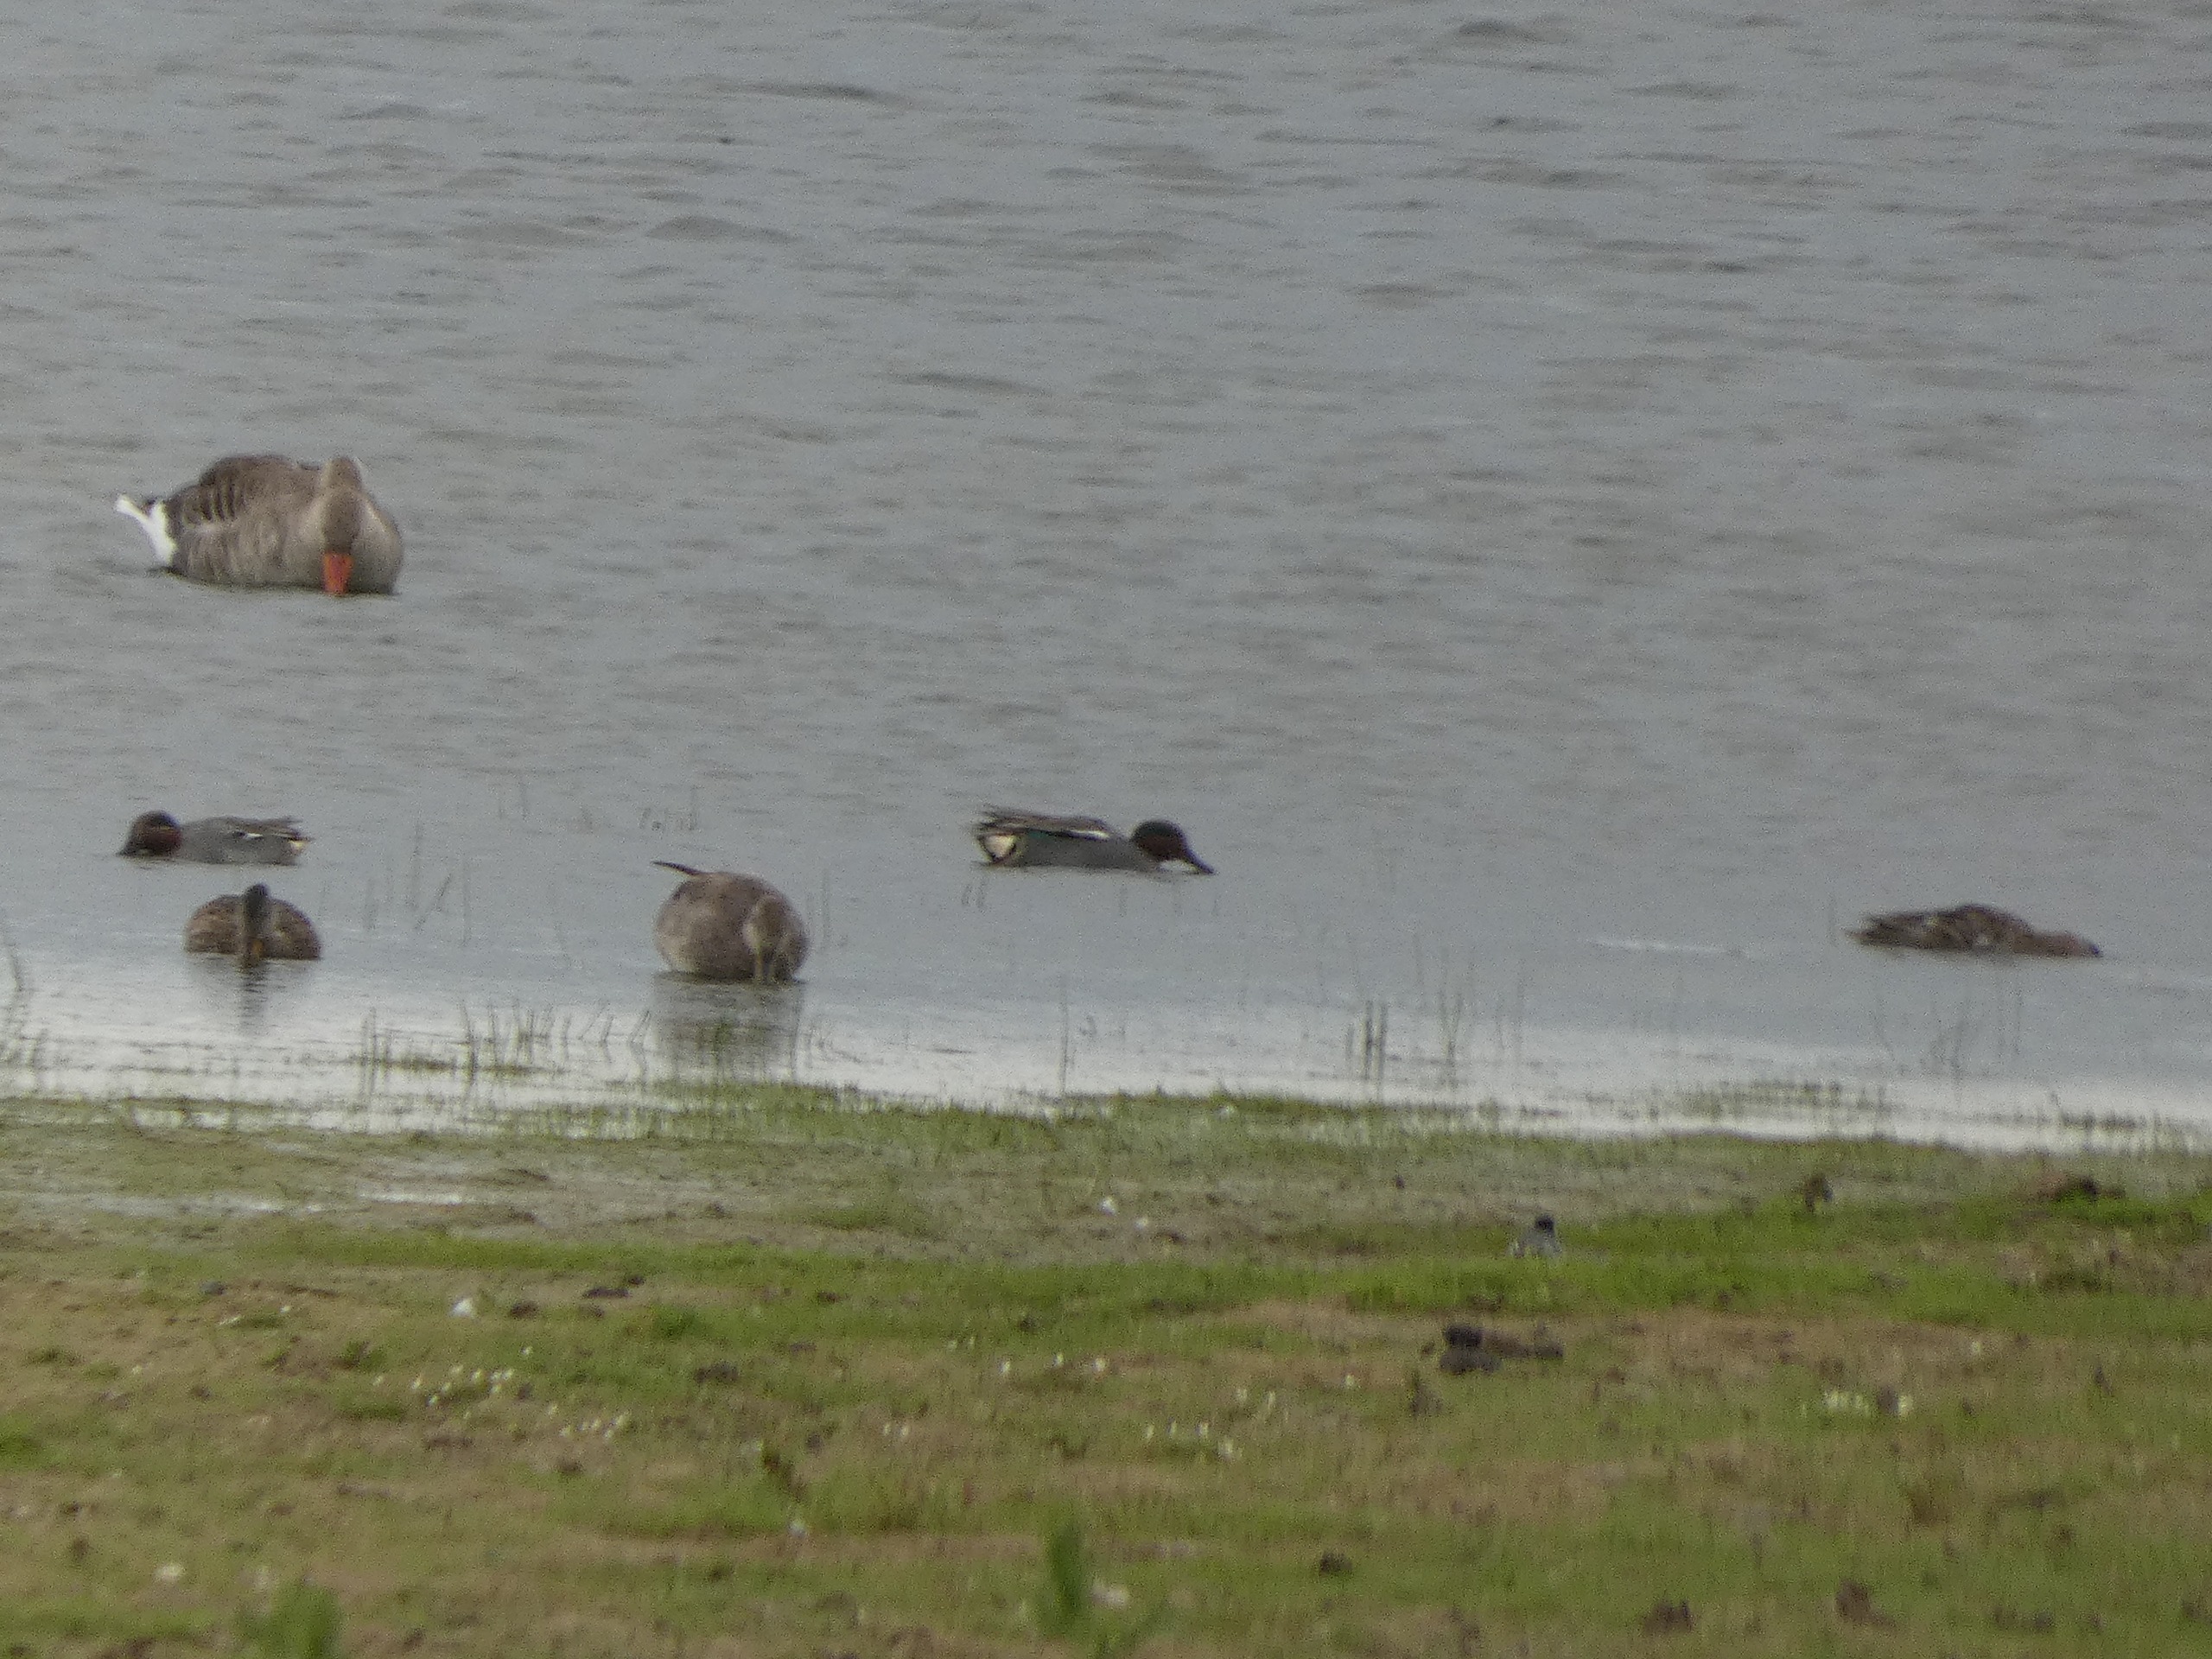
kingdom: Animalia
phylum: Chordata
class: Aves
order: Anseriformes
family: Anatidae
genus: Anas
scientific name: Anas crecca
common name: Krikand
